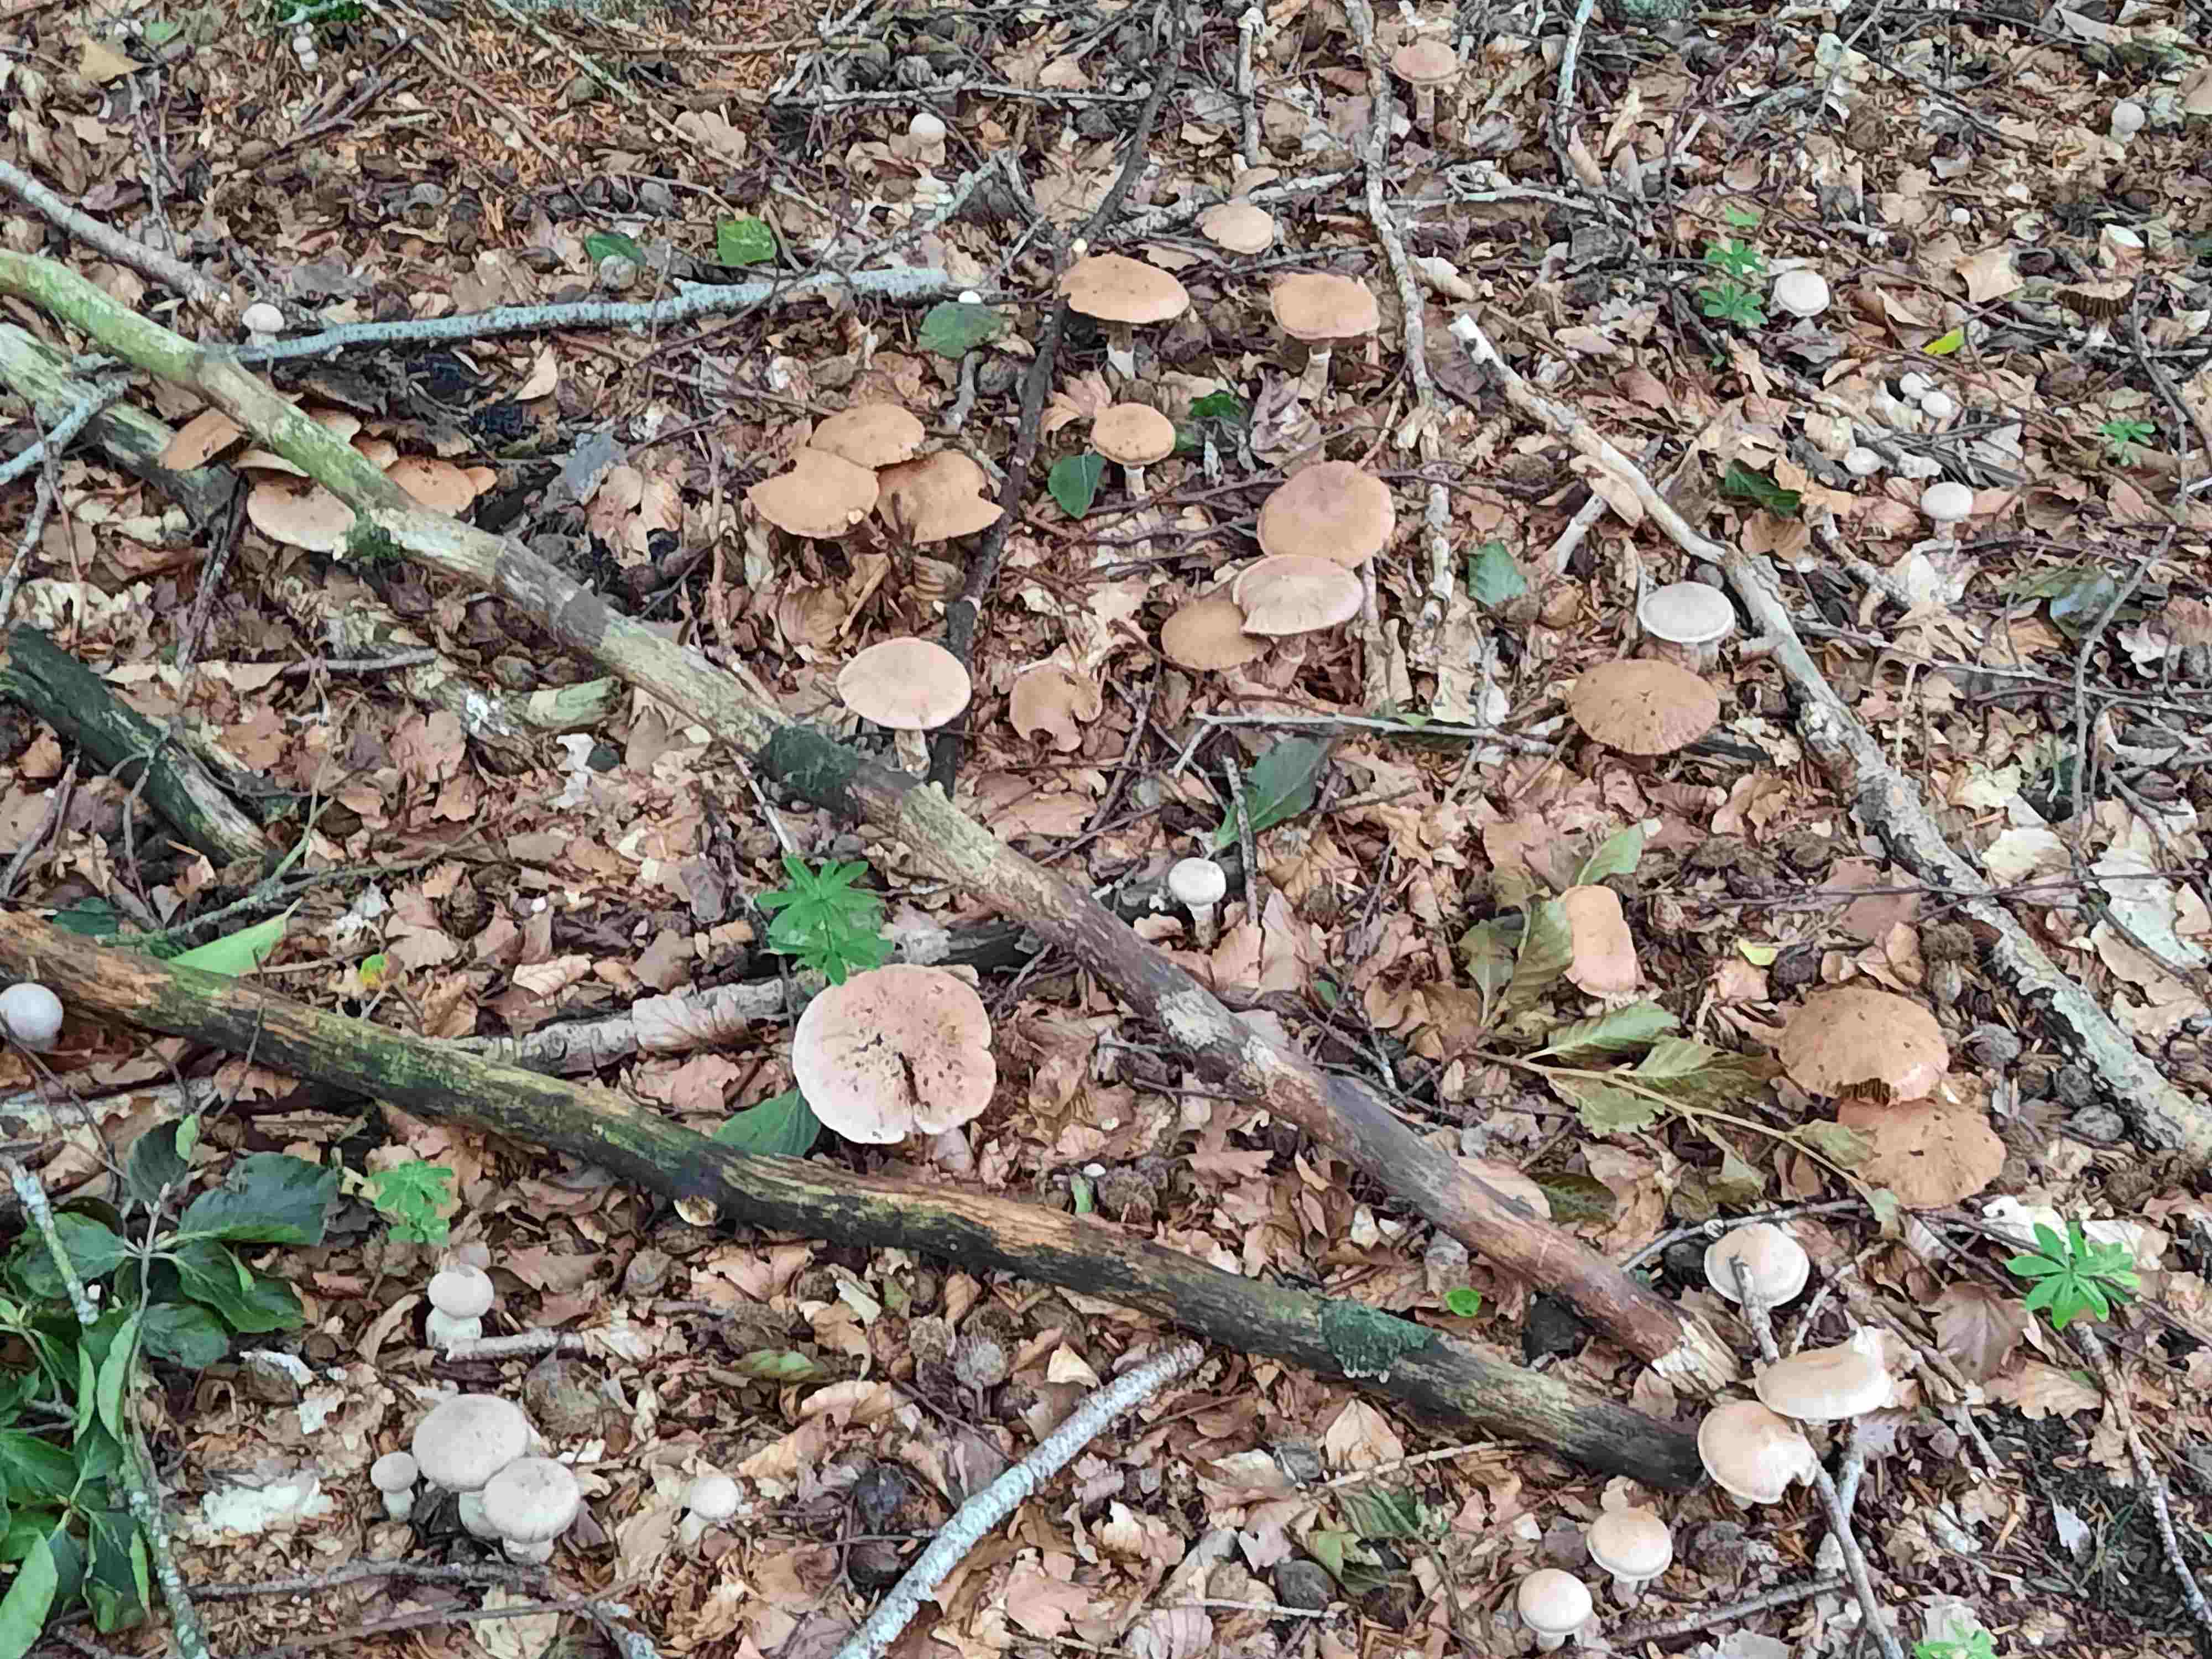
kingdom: Fungi
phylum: Basidiomycota
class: Agaricomycetes
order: Agaricales
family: Cortinariaceae
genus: Cortinarius
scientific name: Cortinarius torvus
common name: champignonagtig slørhat
